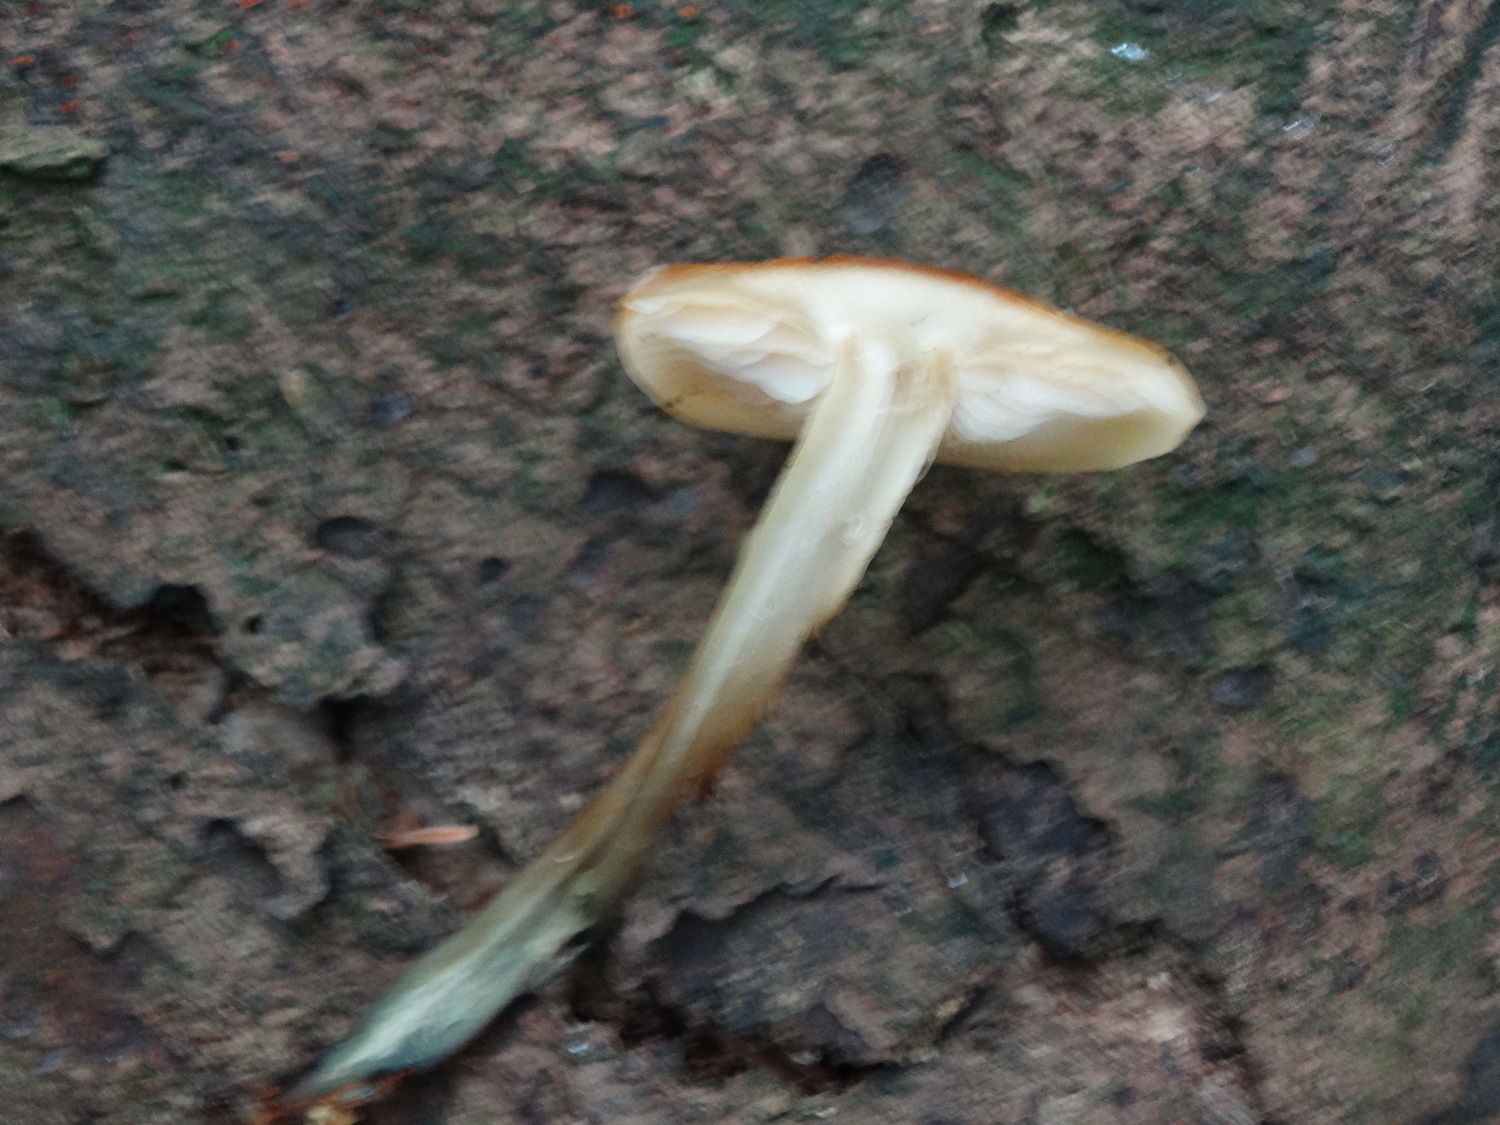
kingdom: Fungi
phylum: Basidiomycota
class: Agaricomycetes
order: Agaricales
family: Physalacriaceae
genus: Flammulina
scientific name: Flammulina velutipes
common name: gul fløjlsfod
